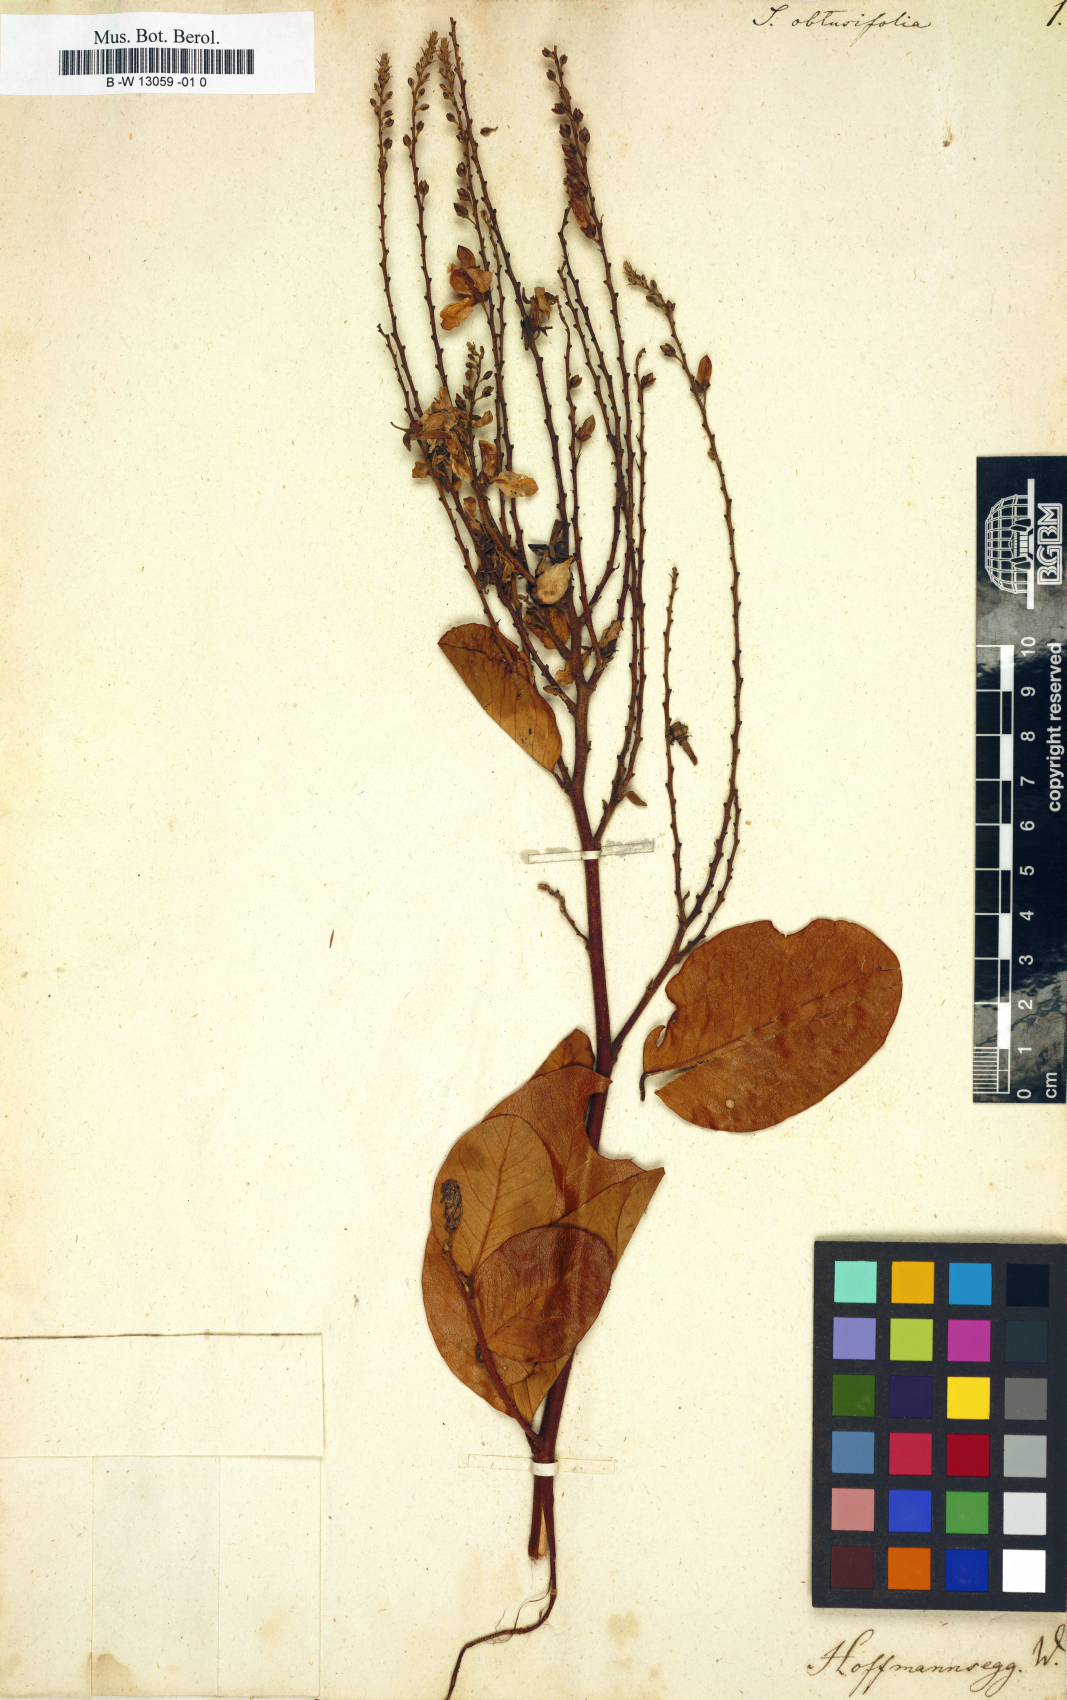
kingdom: Plantae
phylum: Tracheophyta
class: Magnoliopsida
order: Fabales
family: Polygalaceae
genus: Securidaca
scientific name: Securidaca
